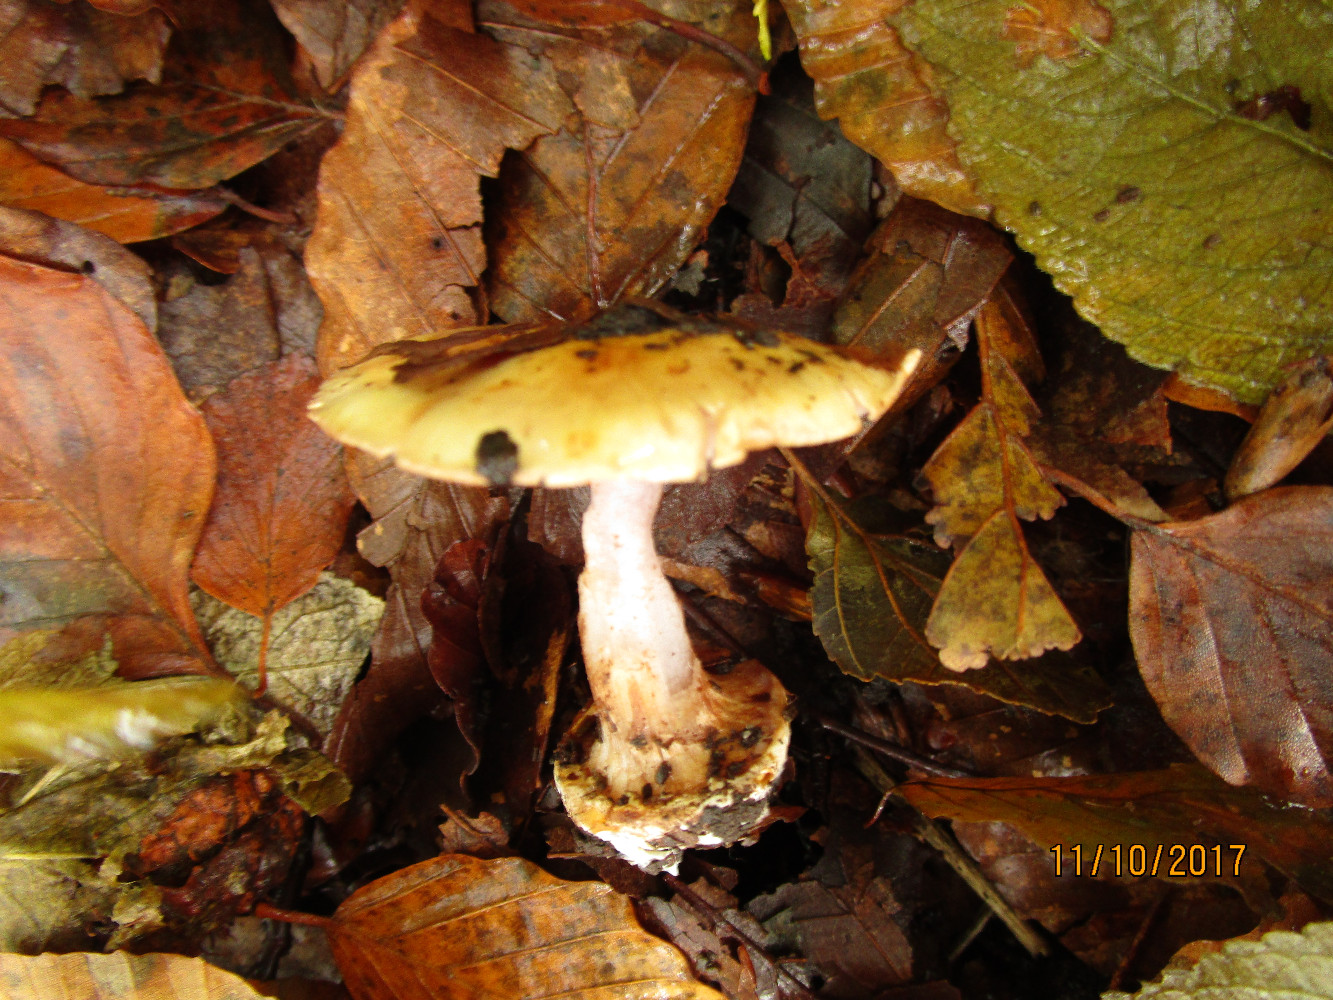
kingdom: Fungi
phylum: Basidiomycota
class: Agaricomycetes
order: Agaricales
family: Cortinariaceae
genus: Calonarius
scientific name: Calonarius catharinae
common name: Katrines slørhat
